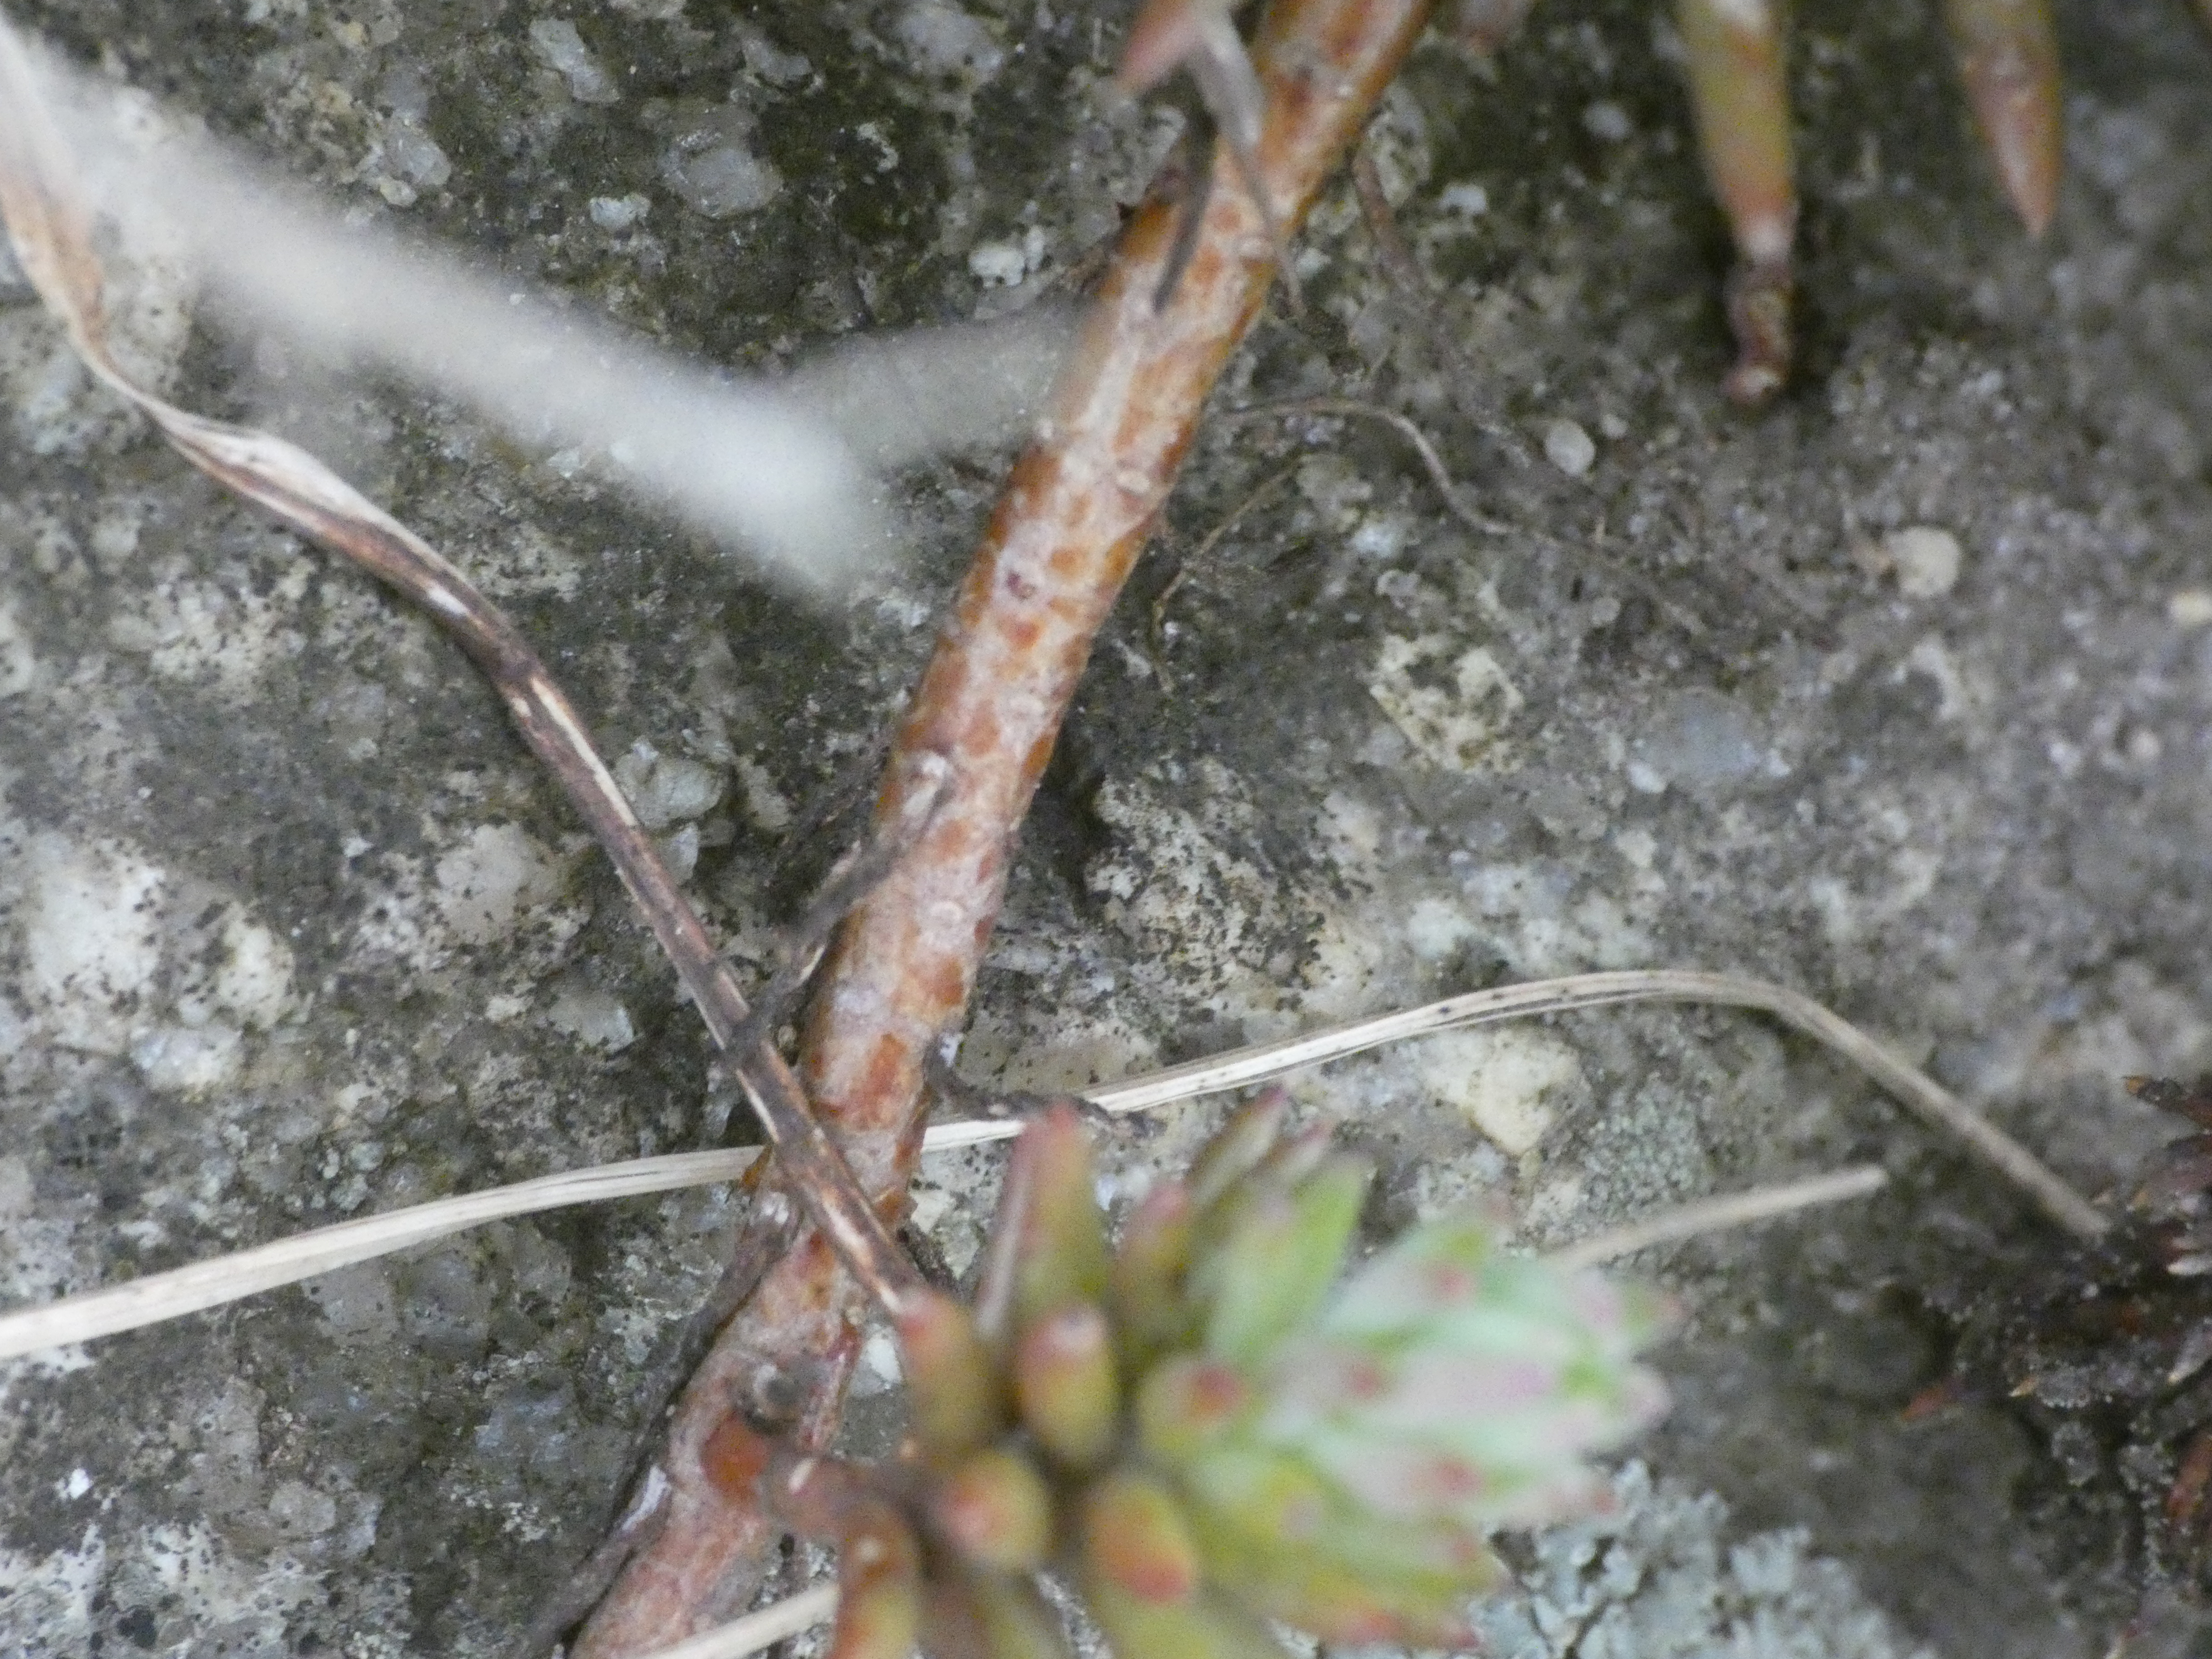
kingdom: Plantae
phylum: Tracheophyta
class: Magnoliopsida
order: Saxifragales
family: Crassulaceae
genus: Petrosedum
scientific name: Petrosedum rupestre
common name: Bjerg-stenurt
